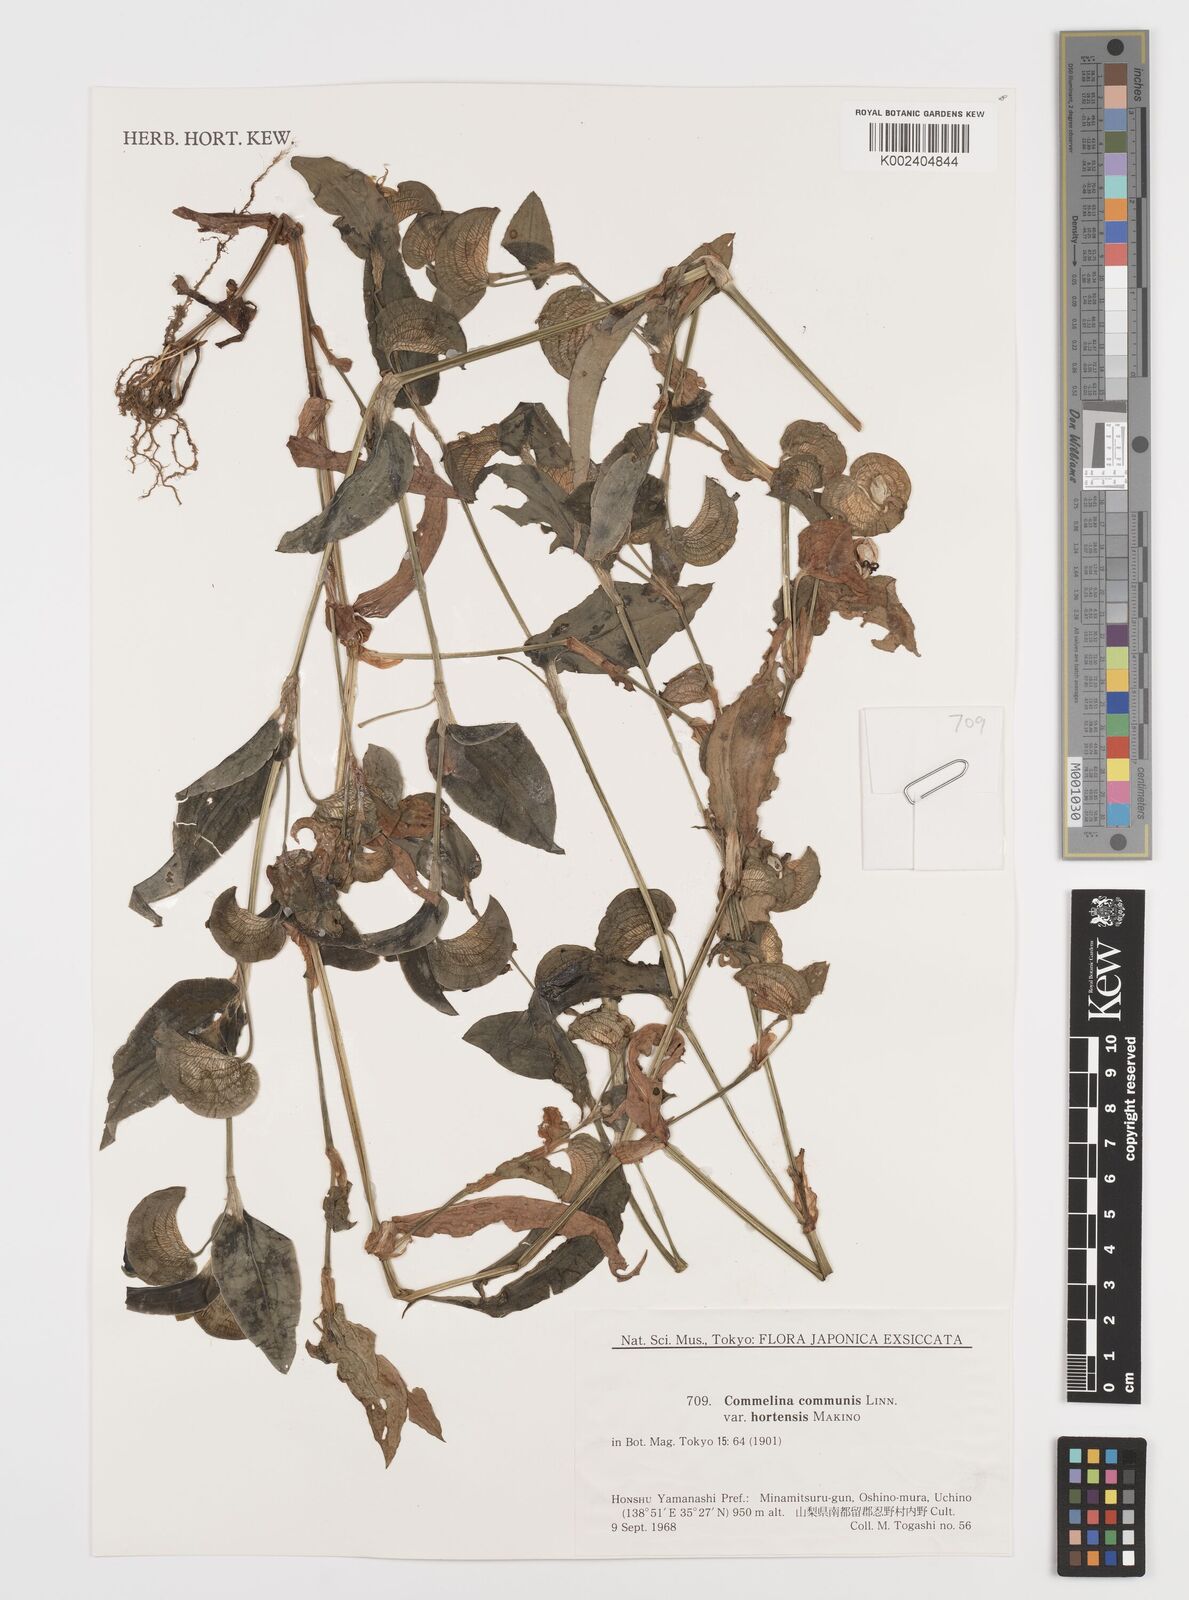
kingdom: Plantae
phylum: Tracheophyta
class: Liliopsida
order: Commelinales
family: Commelinaceae
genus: Commelina
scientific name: Commelina communis
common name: Asiatic dayflower
